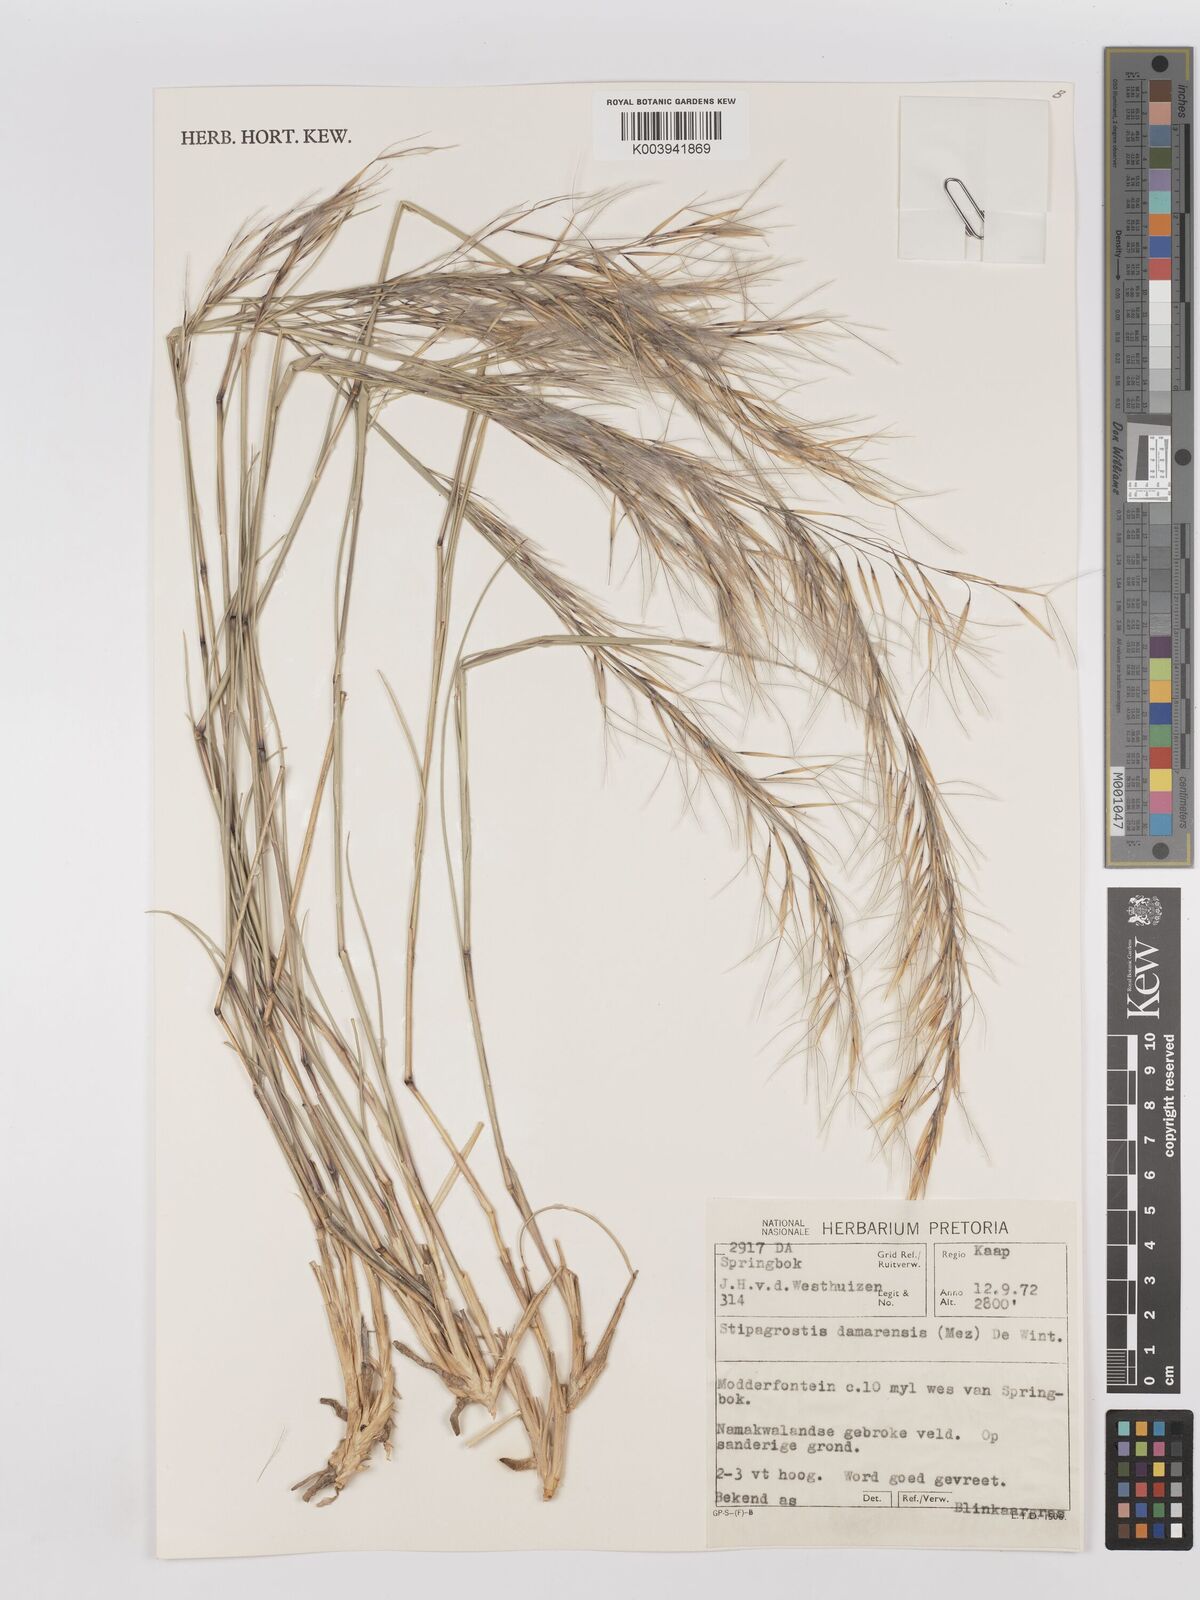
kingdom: Plantae
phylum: Tracheophyta
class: Liliopsida
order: Poales
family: Poaceae
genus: Stipagrostis
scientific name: Stipagrostis damarensis
